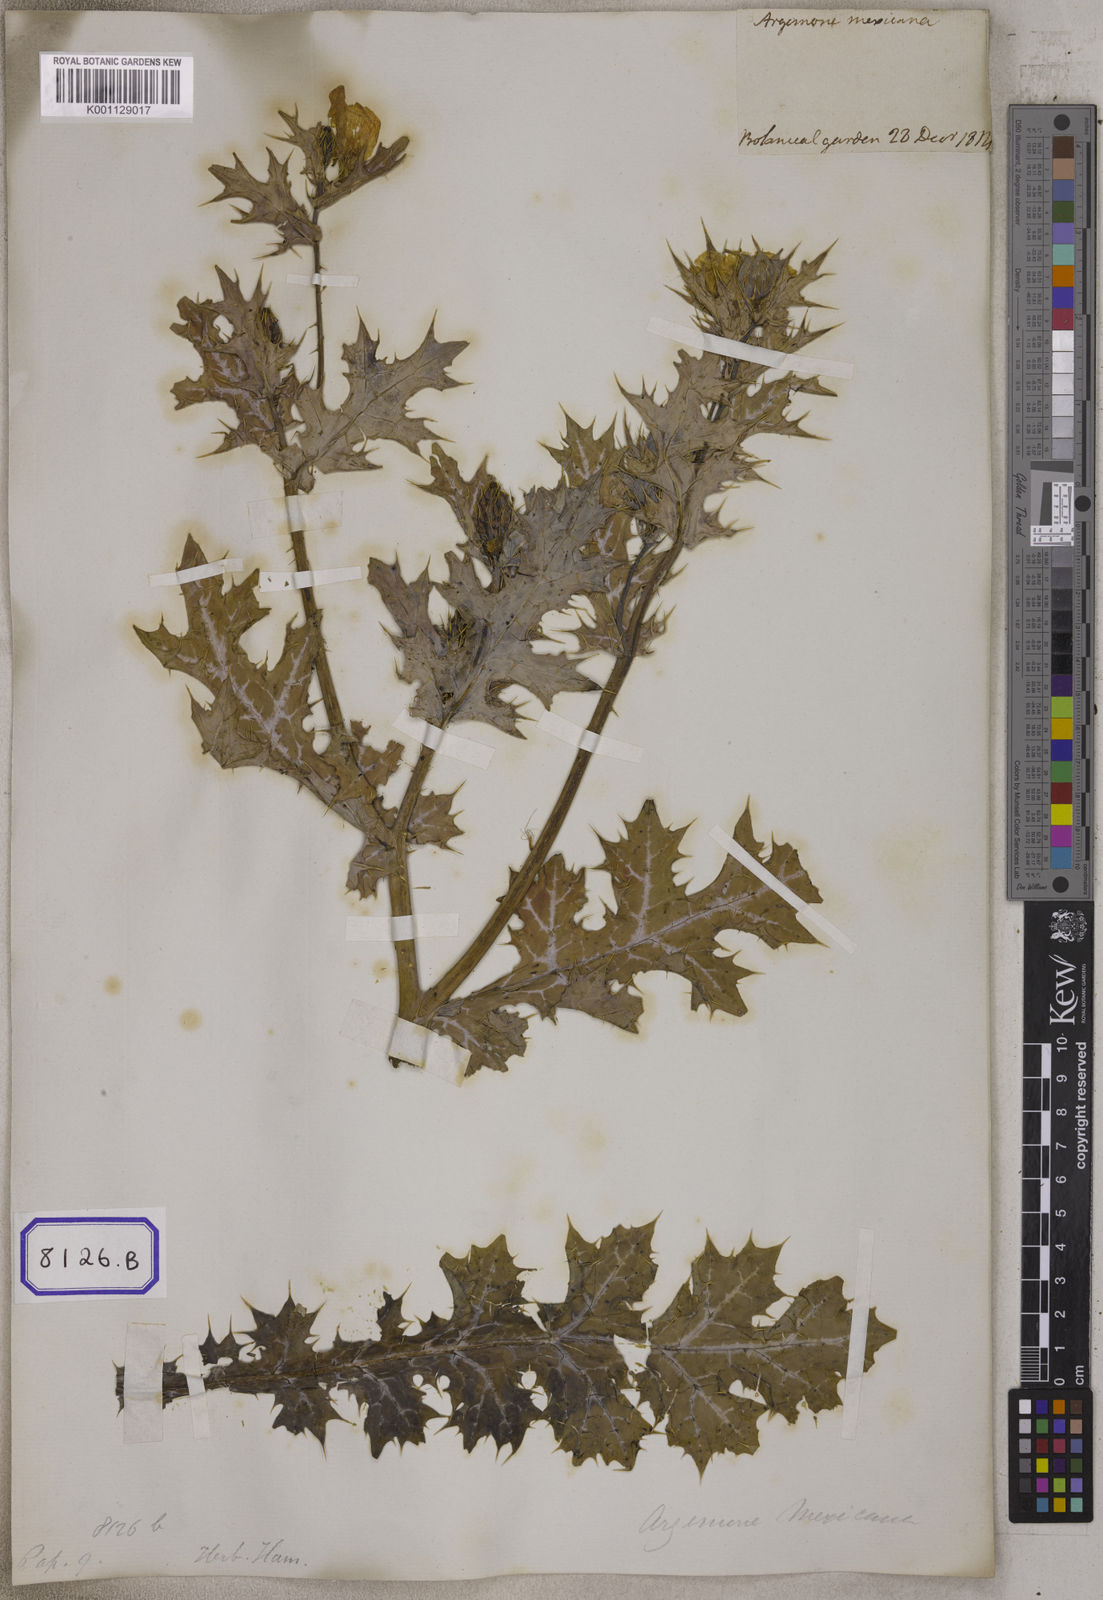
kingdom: Plantae
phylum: Tracheophyta
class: Magnoliopsida
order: Ranunculales
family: Papaveraceae
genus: Argemone
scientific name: Argemone mexicana
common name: Mexican poppy
